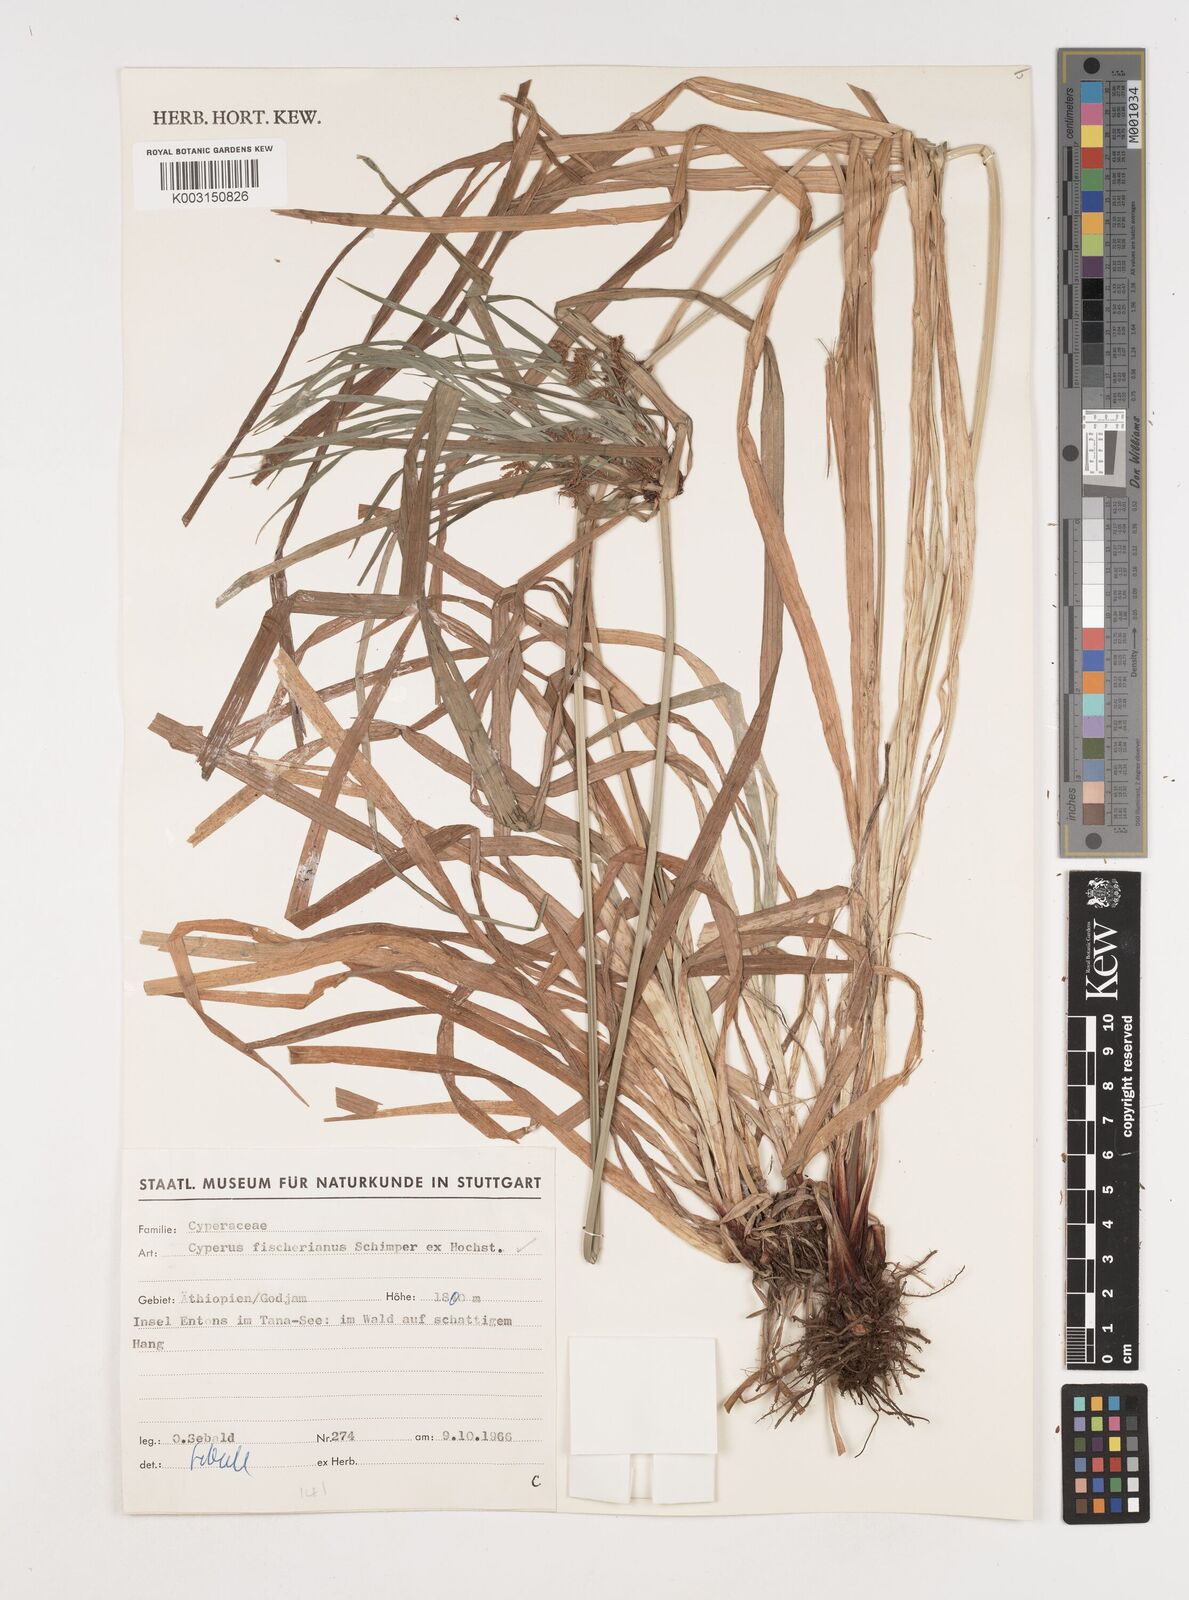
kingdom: Plantae
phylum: Tracheophyta
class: Liliopsida
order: Poales
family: Cyperaceae
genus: Cyperus
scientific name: Cyperus fischerianus
